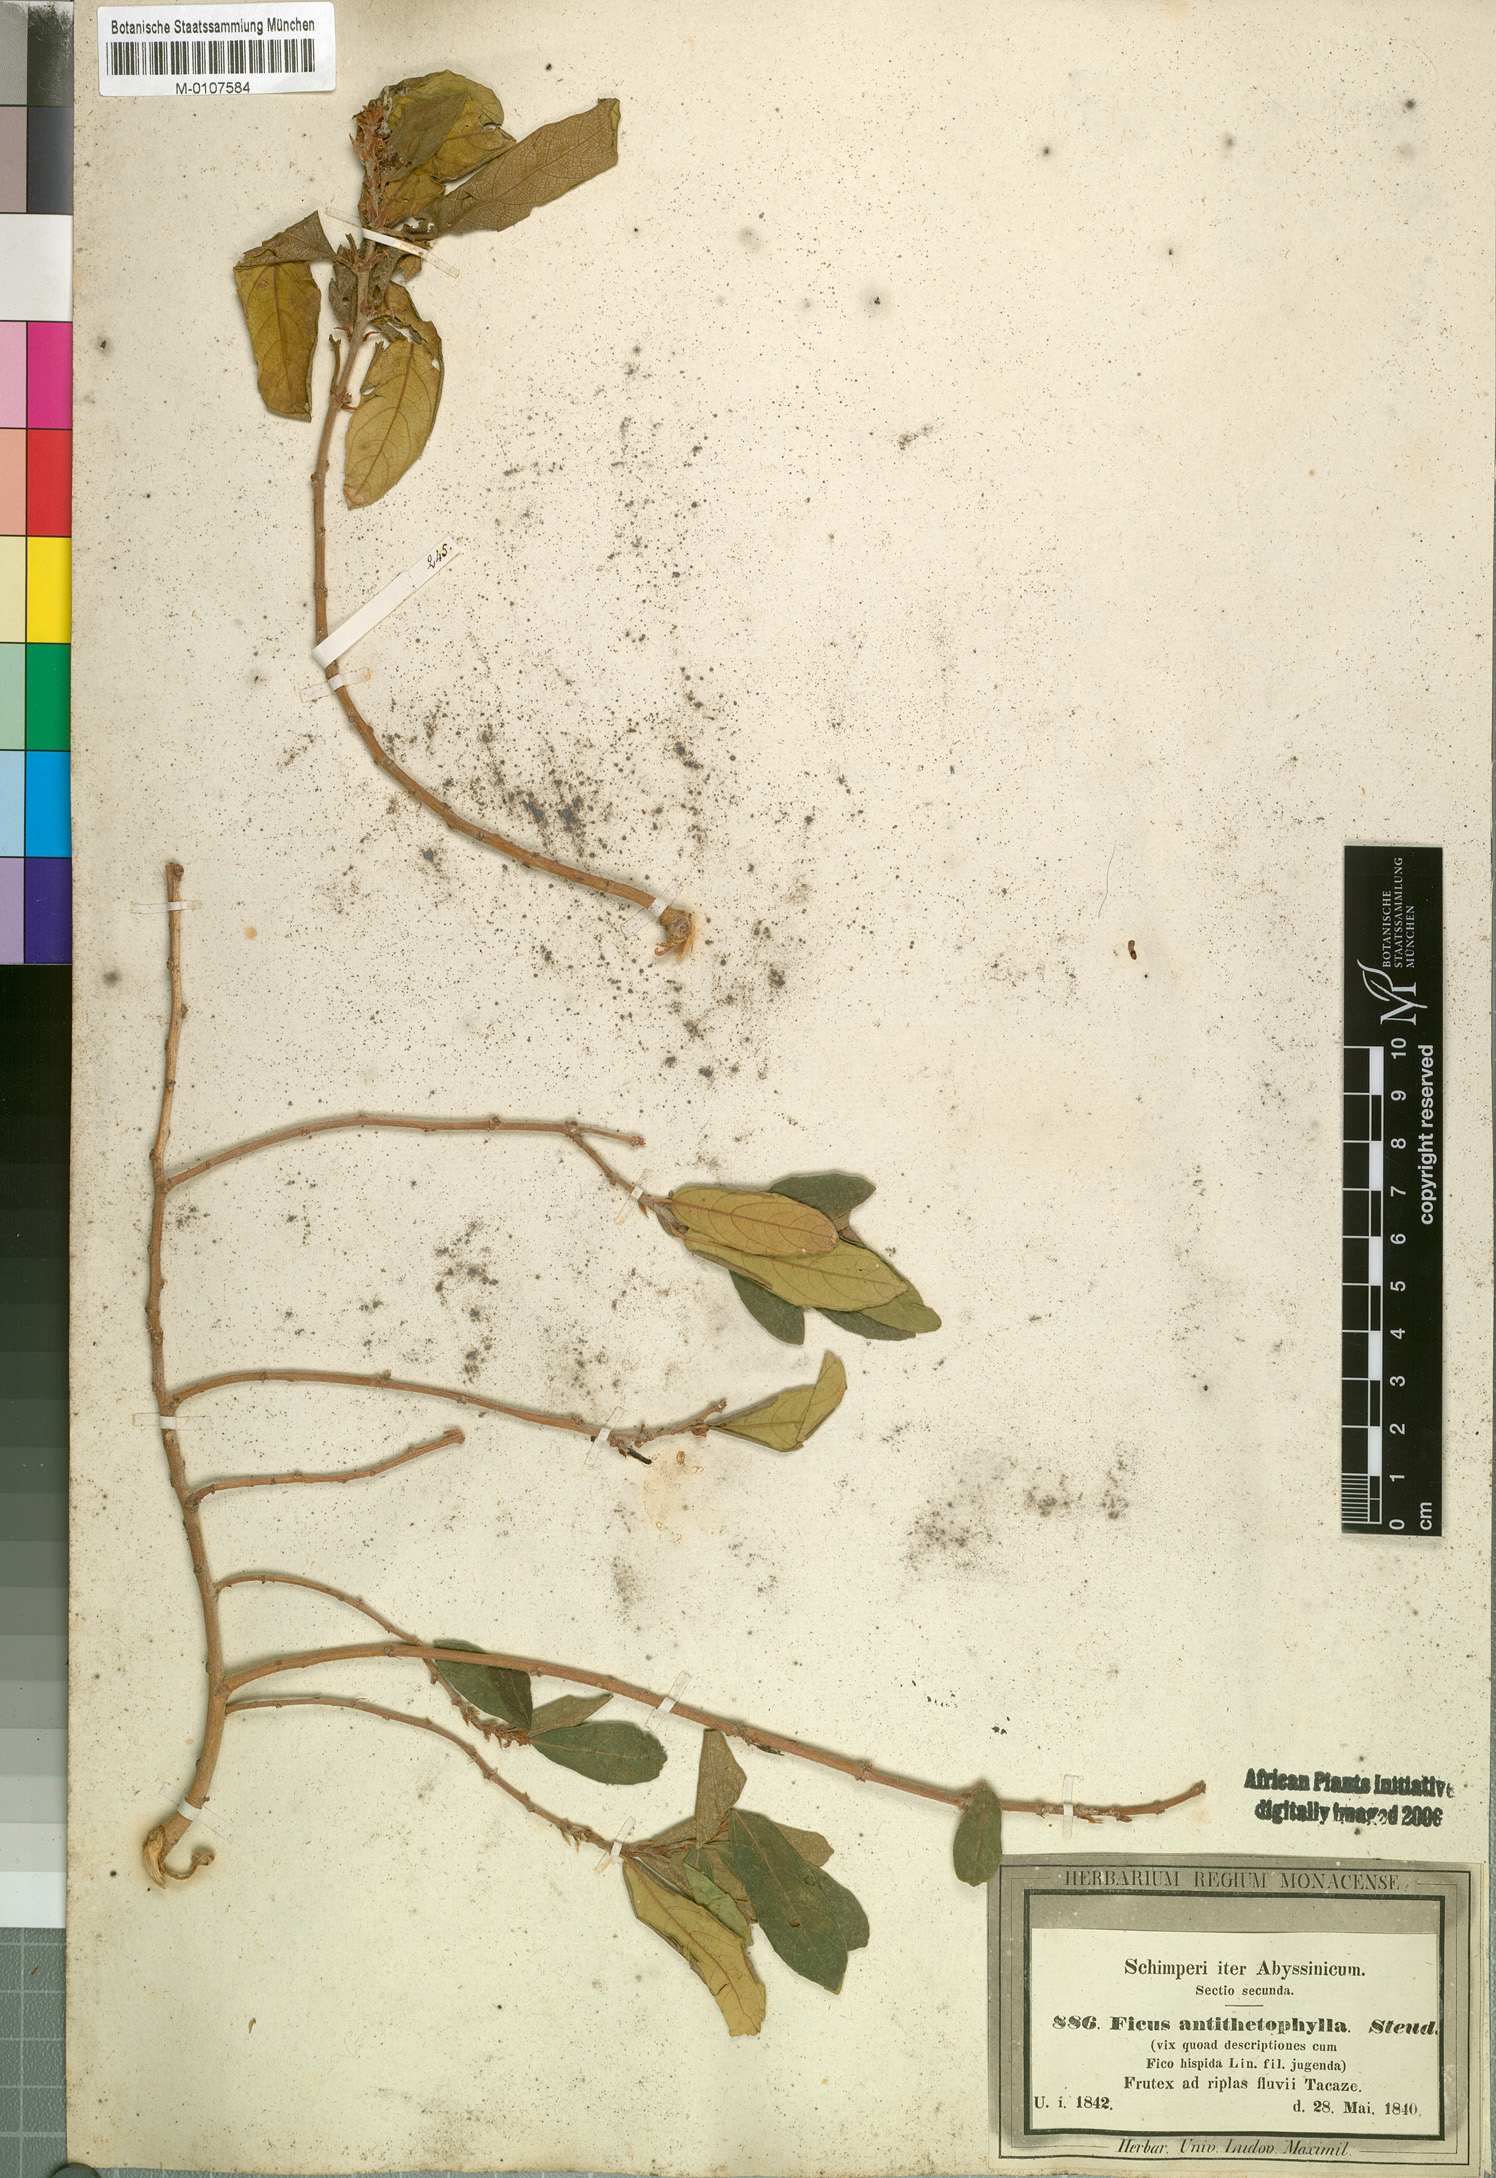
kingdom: Plantae
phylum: Tracheophyta
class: Magnoliopsida
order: Rosales
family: Moraceae
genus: Ficus
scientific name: Ficus capreifolia
